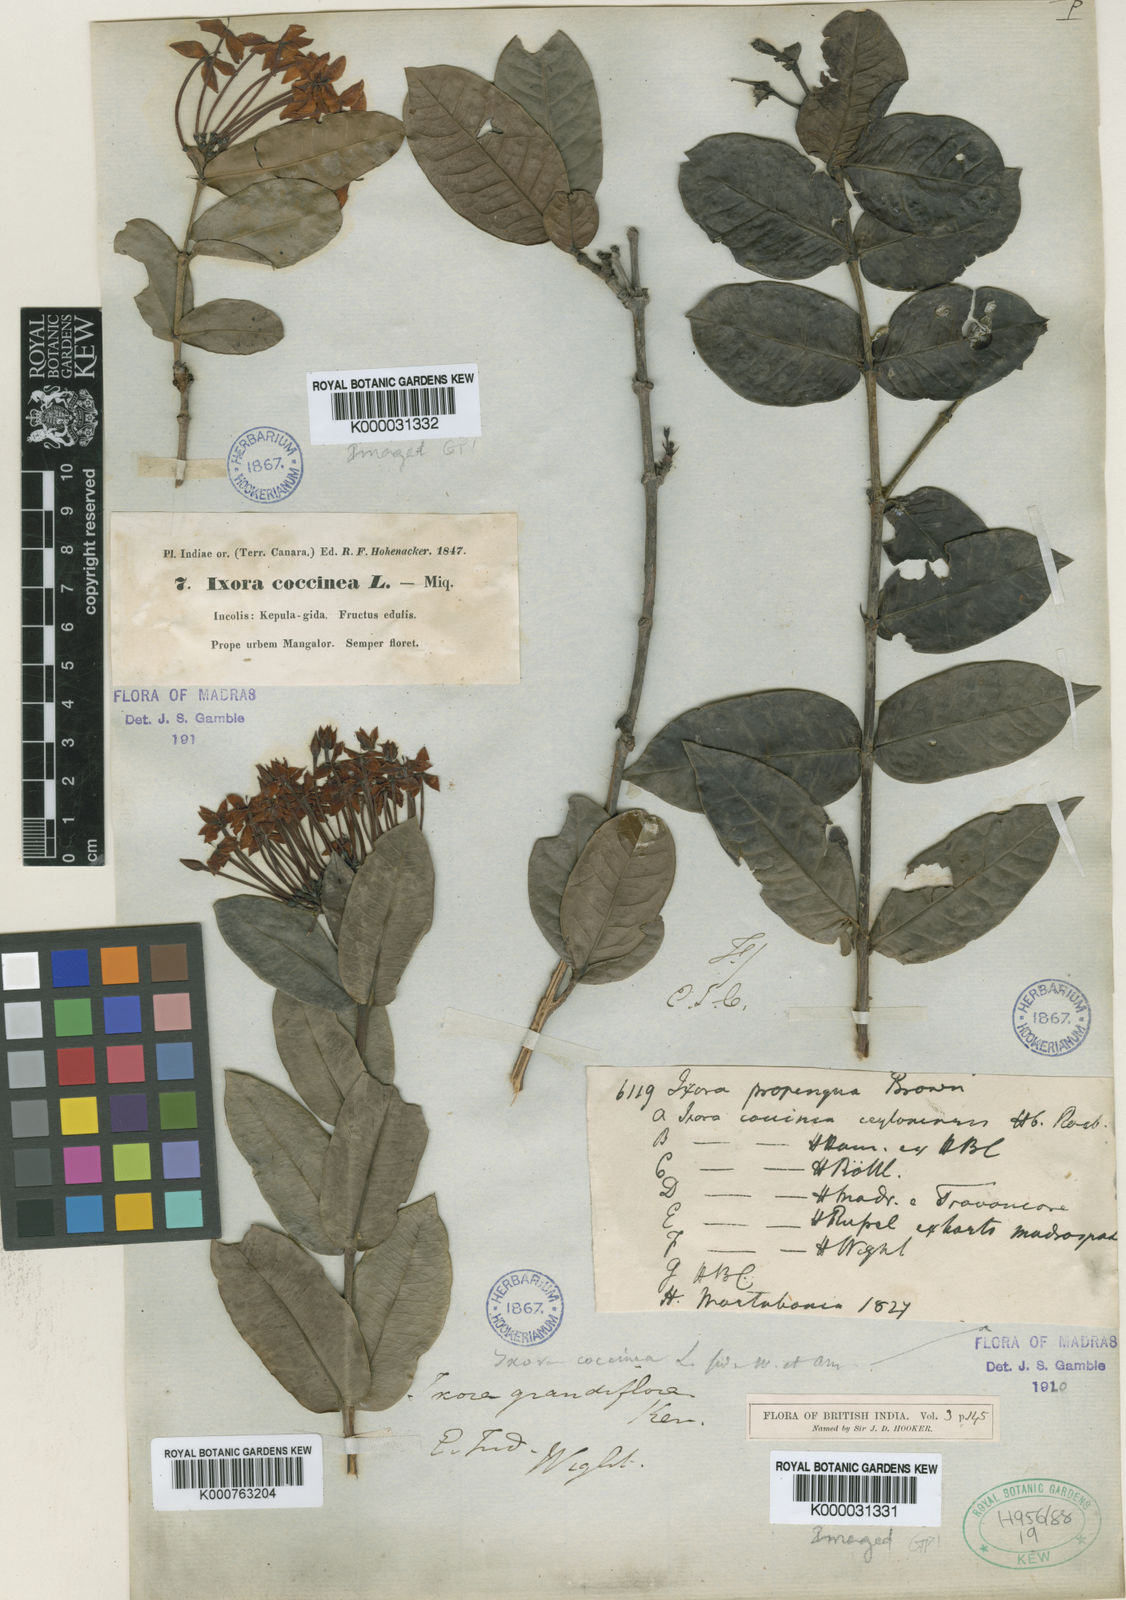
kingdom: Plantae
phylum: Tracheophyta
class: Magnoliopsida
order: Gentianales
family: Rubiaceae
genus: Ixora
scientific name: Ixora coccinea
